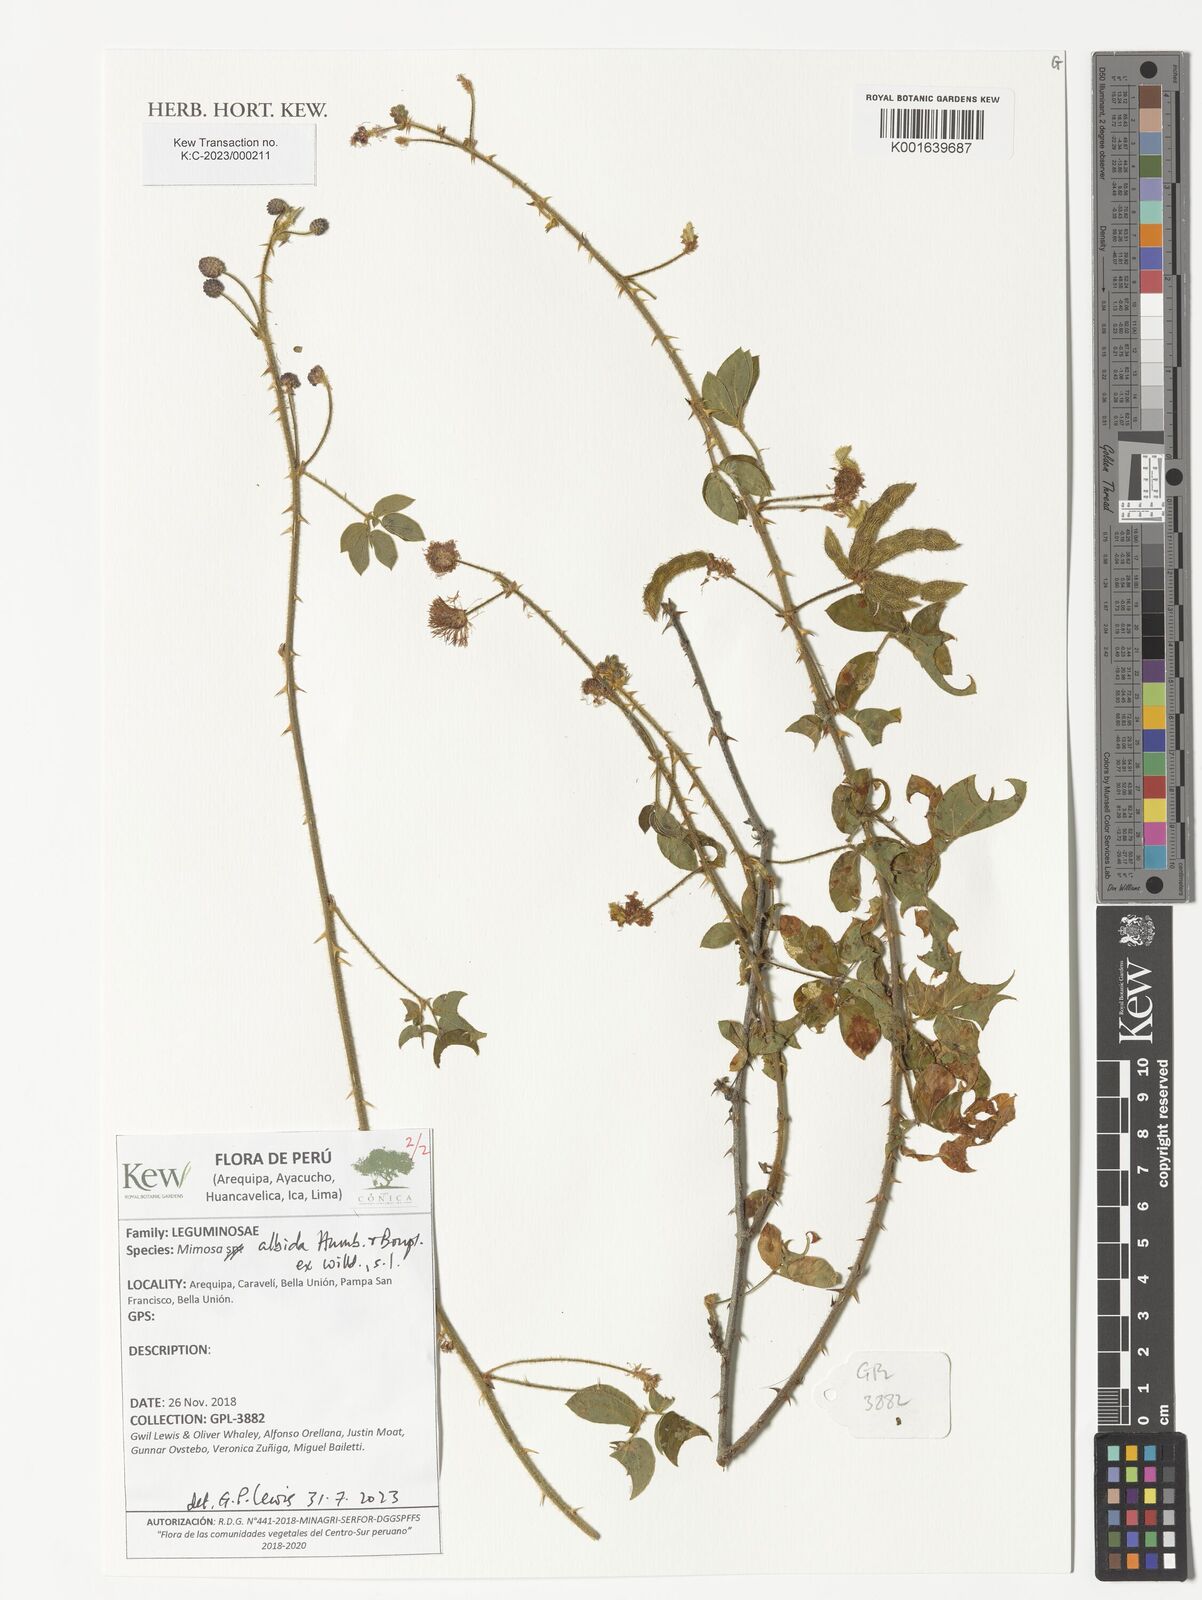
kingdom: Plantae
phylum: Tracheophyta
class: Magnoliopsida
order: Fabales
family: Fabaceae
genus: Mimosa
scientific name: Mimosa albida
